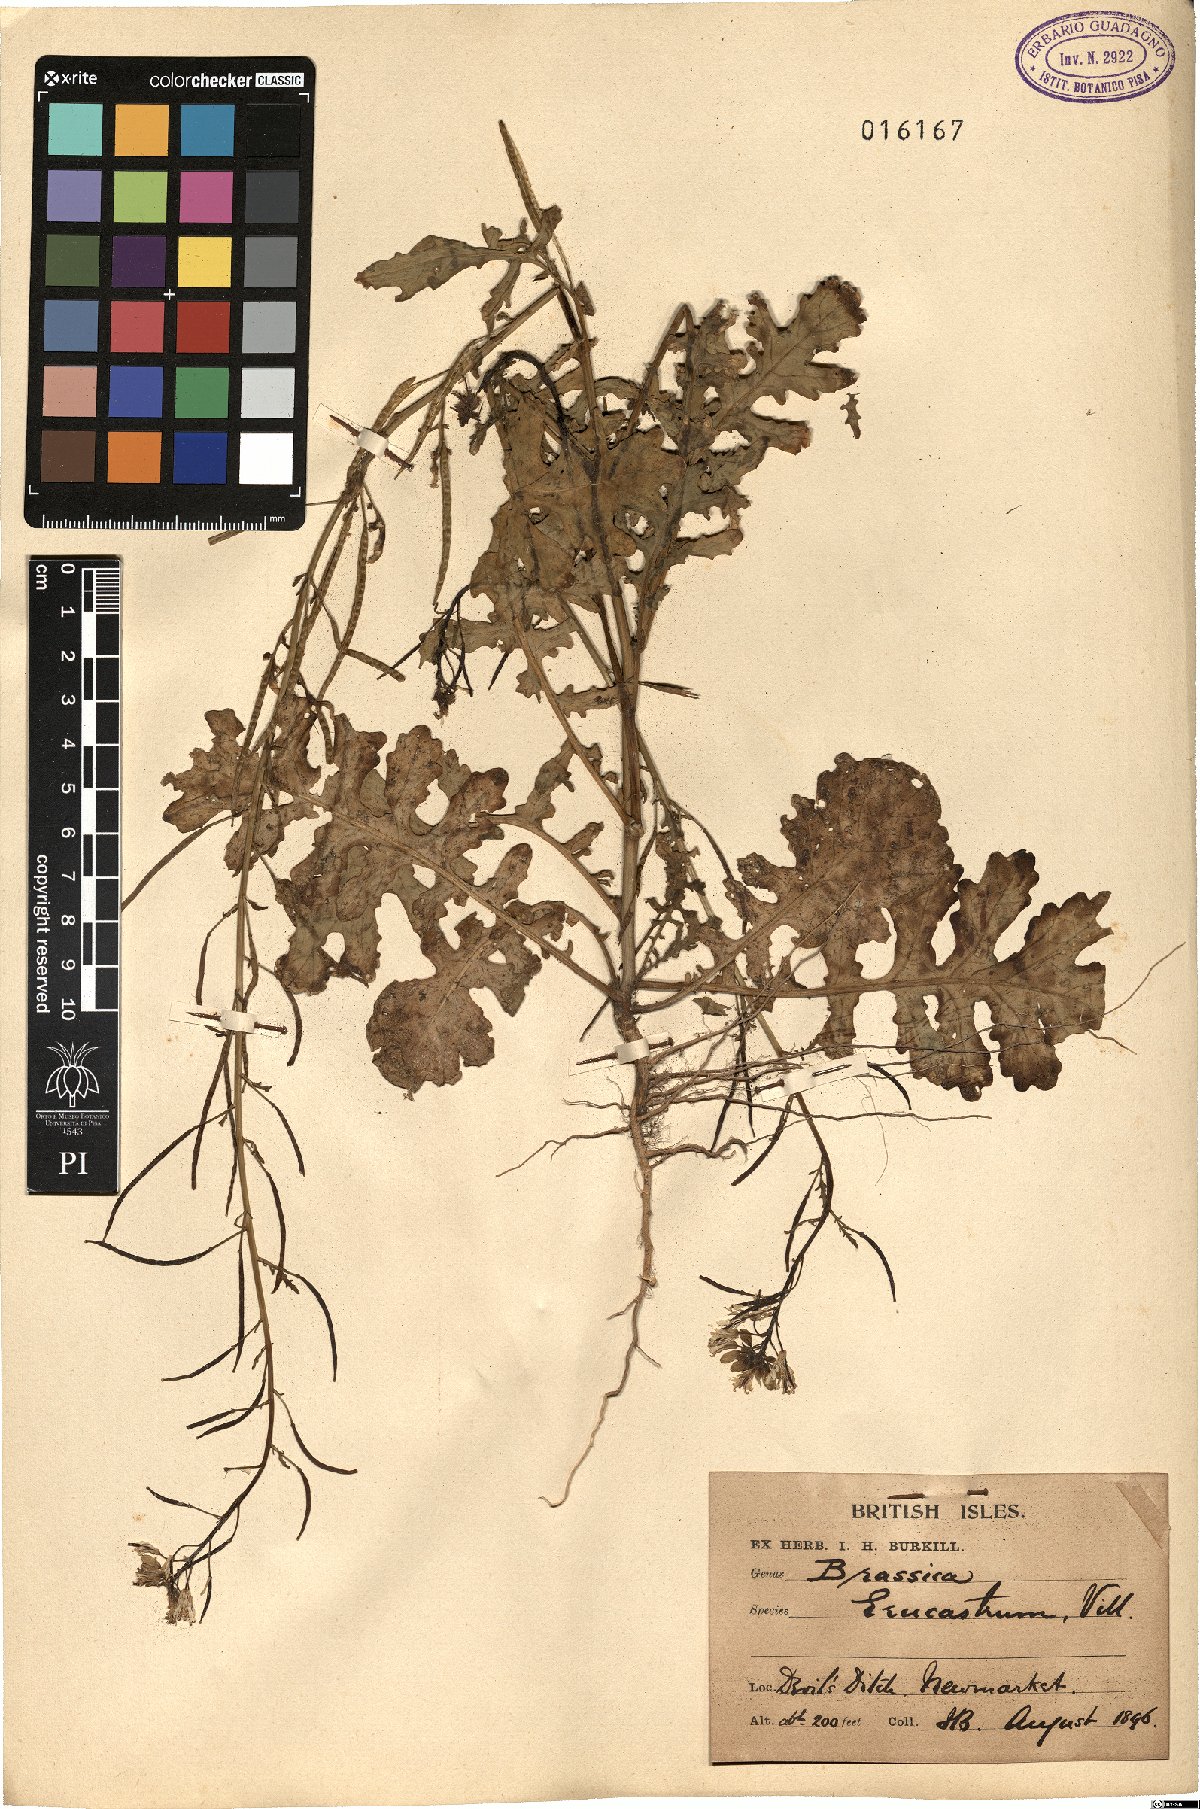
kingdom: Plantae
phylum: Tracheophyta
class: Magnoliopsida
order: Brassicales
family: Brassicaceae
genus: Erucastrum
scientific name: Erucastrum nasturtiifolium
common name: Watercress-leaf rocket
